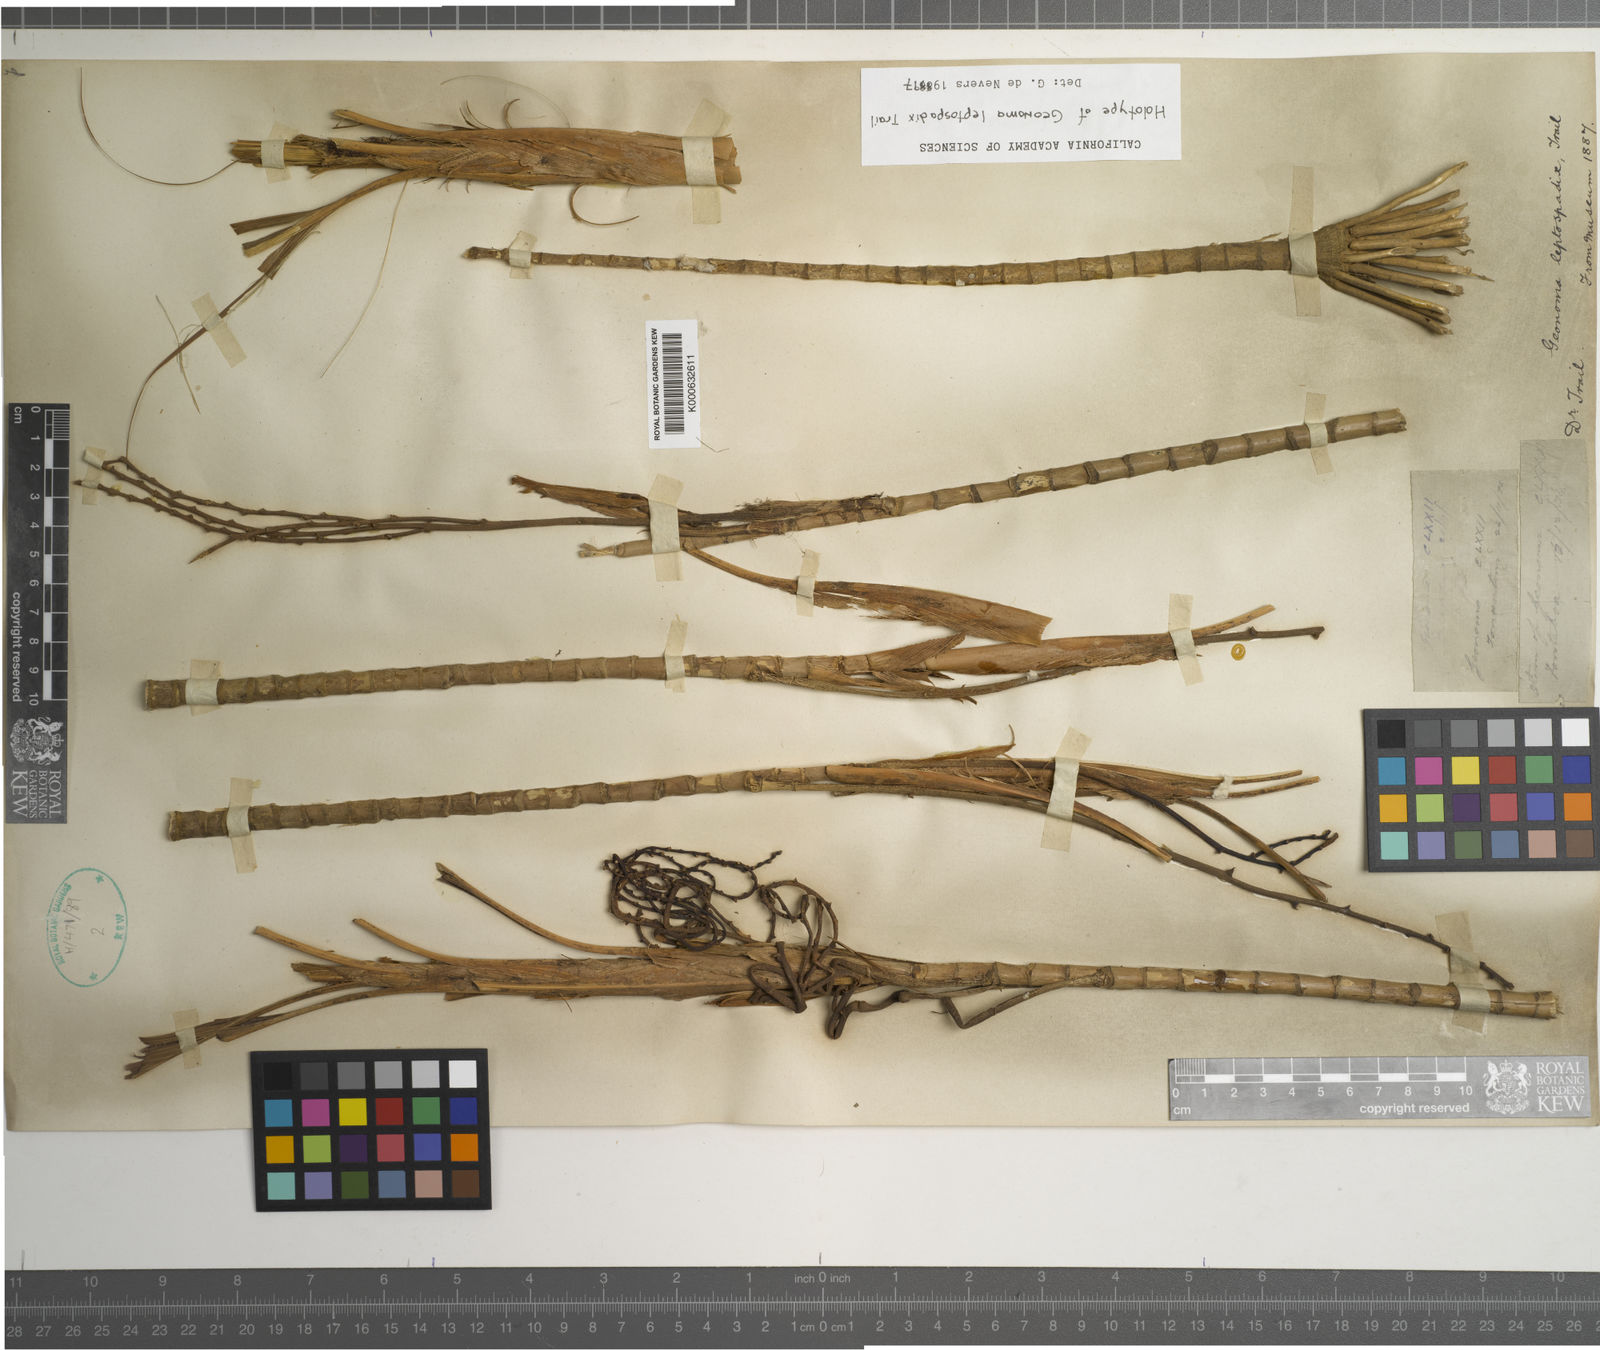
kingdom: Plantae
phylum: Tracheophyta
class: Liliopsida
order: Arecales
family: Arecaceae
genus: Geonoma
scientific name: Geonoma leptospadix
